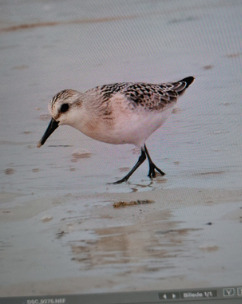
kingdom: Animalia
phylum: Chordata
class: Aves
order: Charadriiformes
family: Scolopacidae
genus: Calidris
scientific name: Calidris alba
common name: Sandløber
